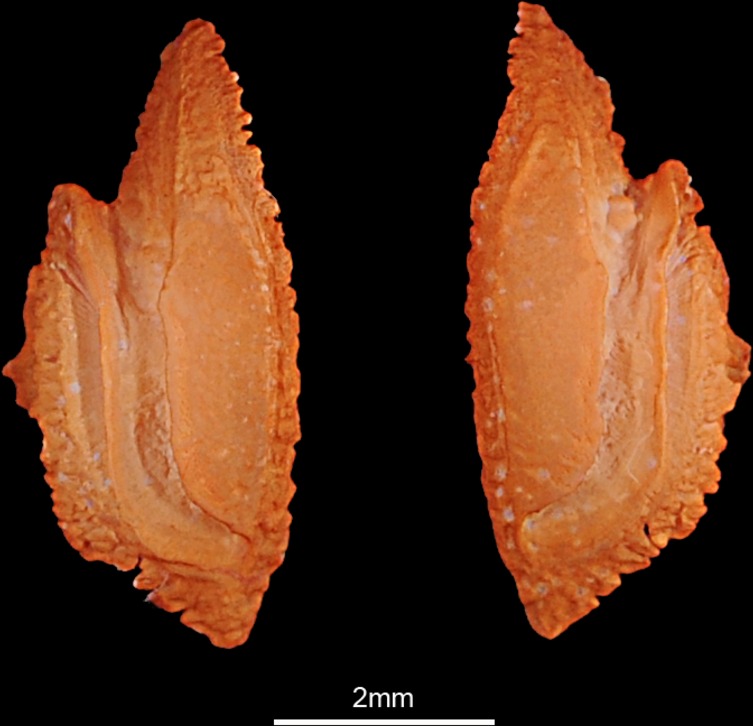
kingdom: Animalia
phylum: Chordata
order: Perciformes
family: Nemipteridae
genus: Scolopsis
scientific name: Scolopsis vosmeri
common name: Whitecheek monocle bream
